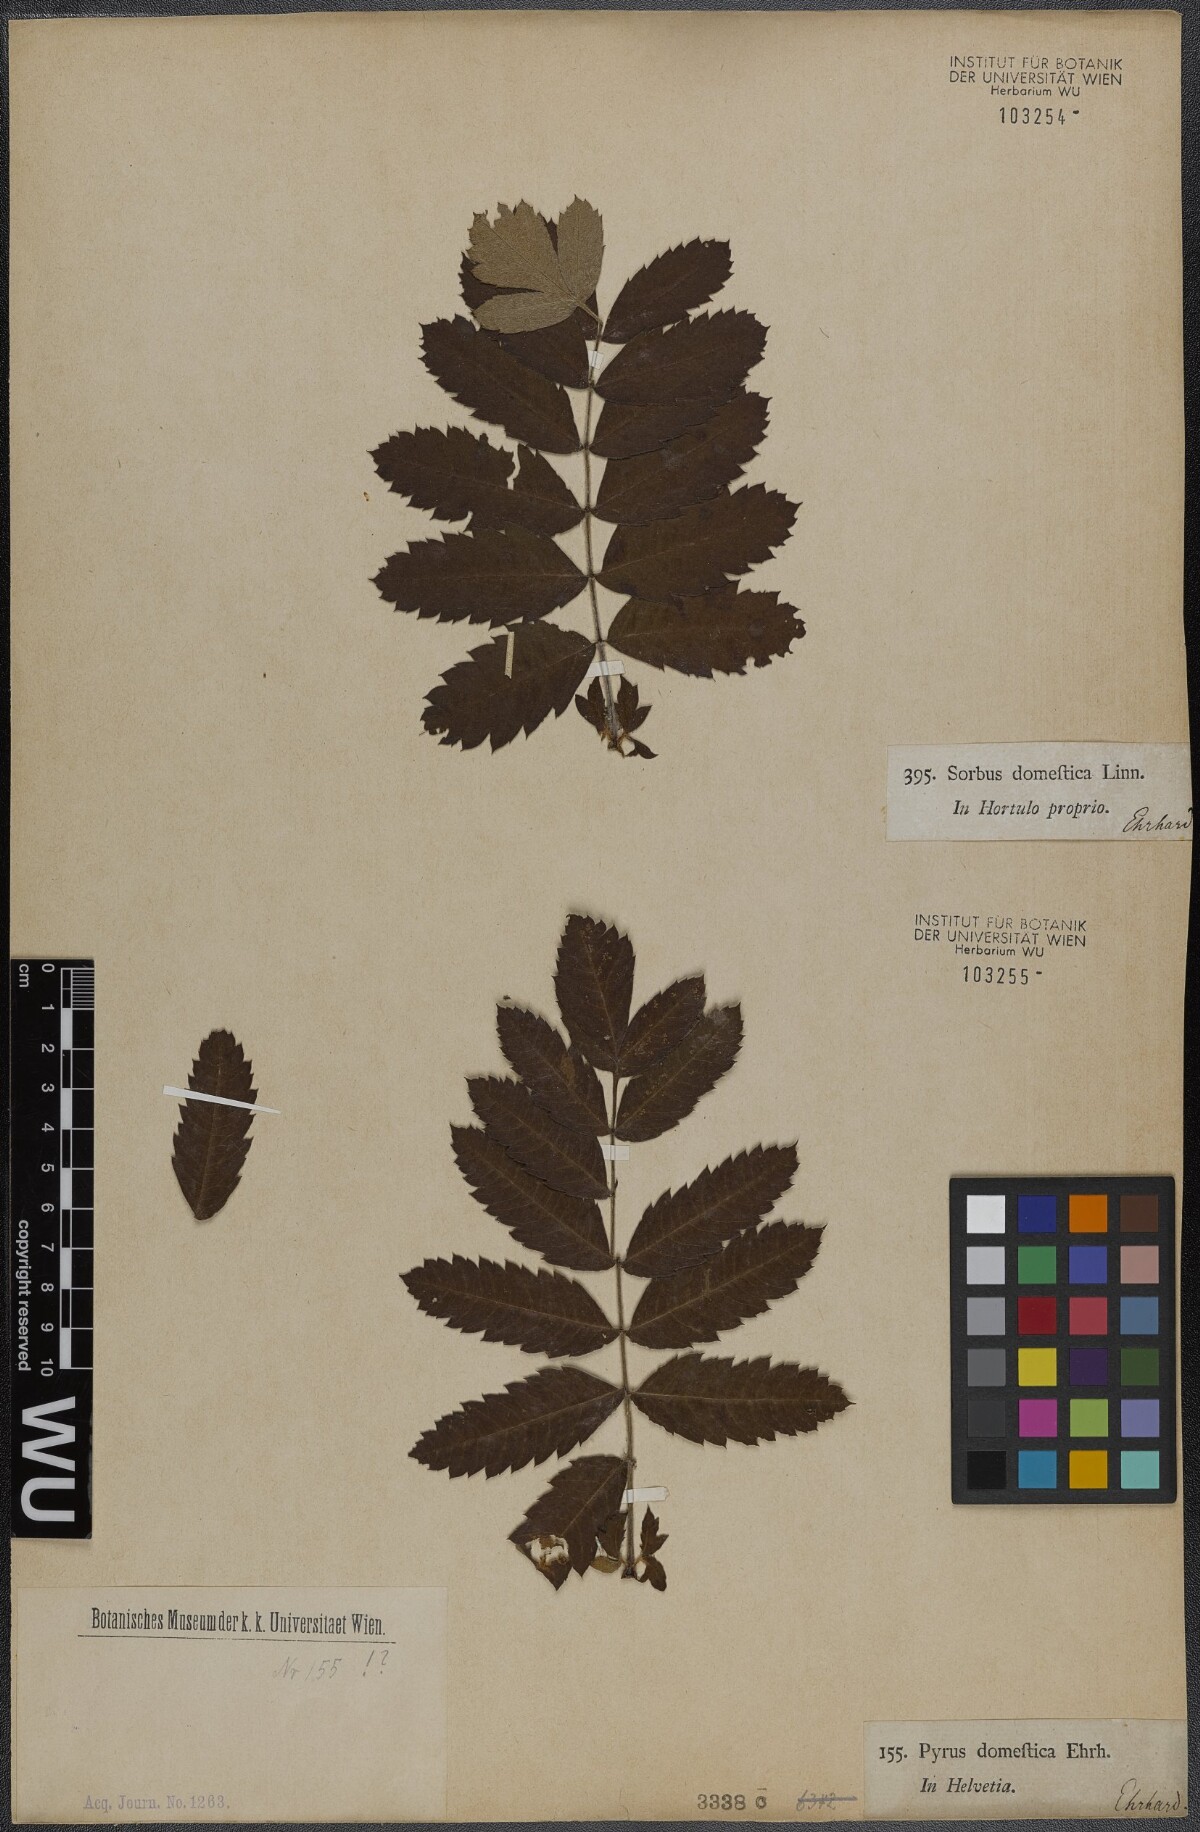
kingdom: Plantae
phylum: Tracheophyta
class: Magnoliopsida
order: Rosales
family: Rosaceae
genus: Cormus
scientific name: Cormus domestica
